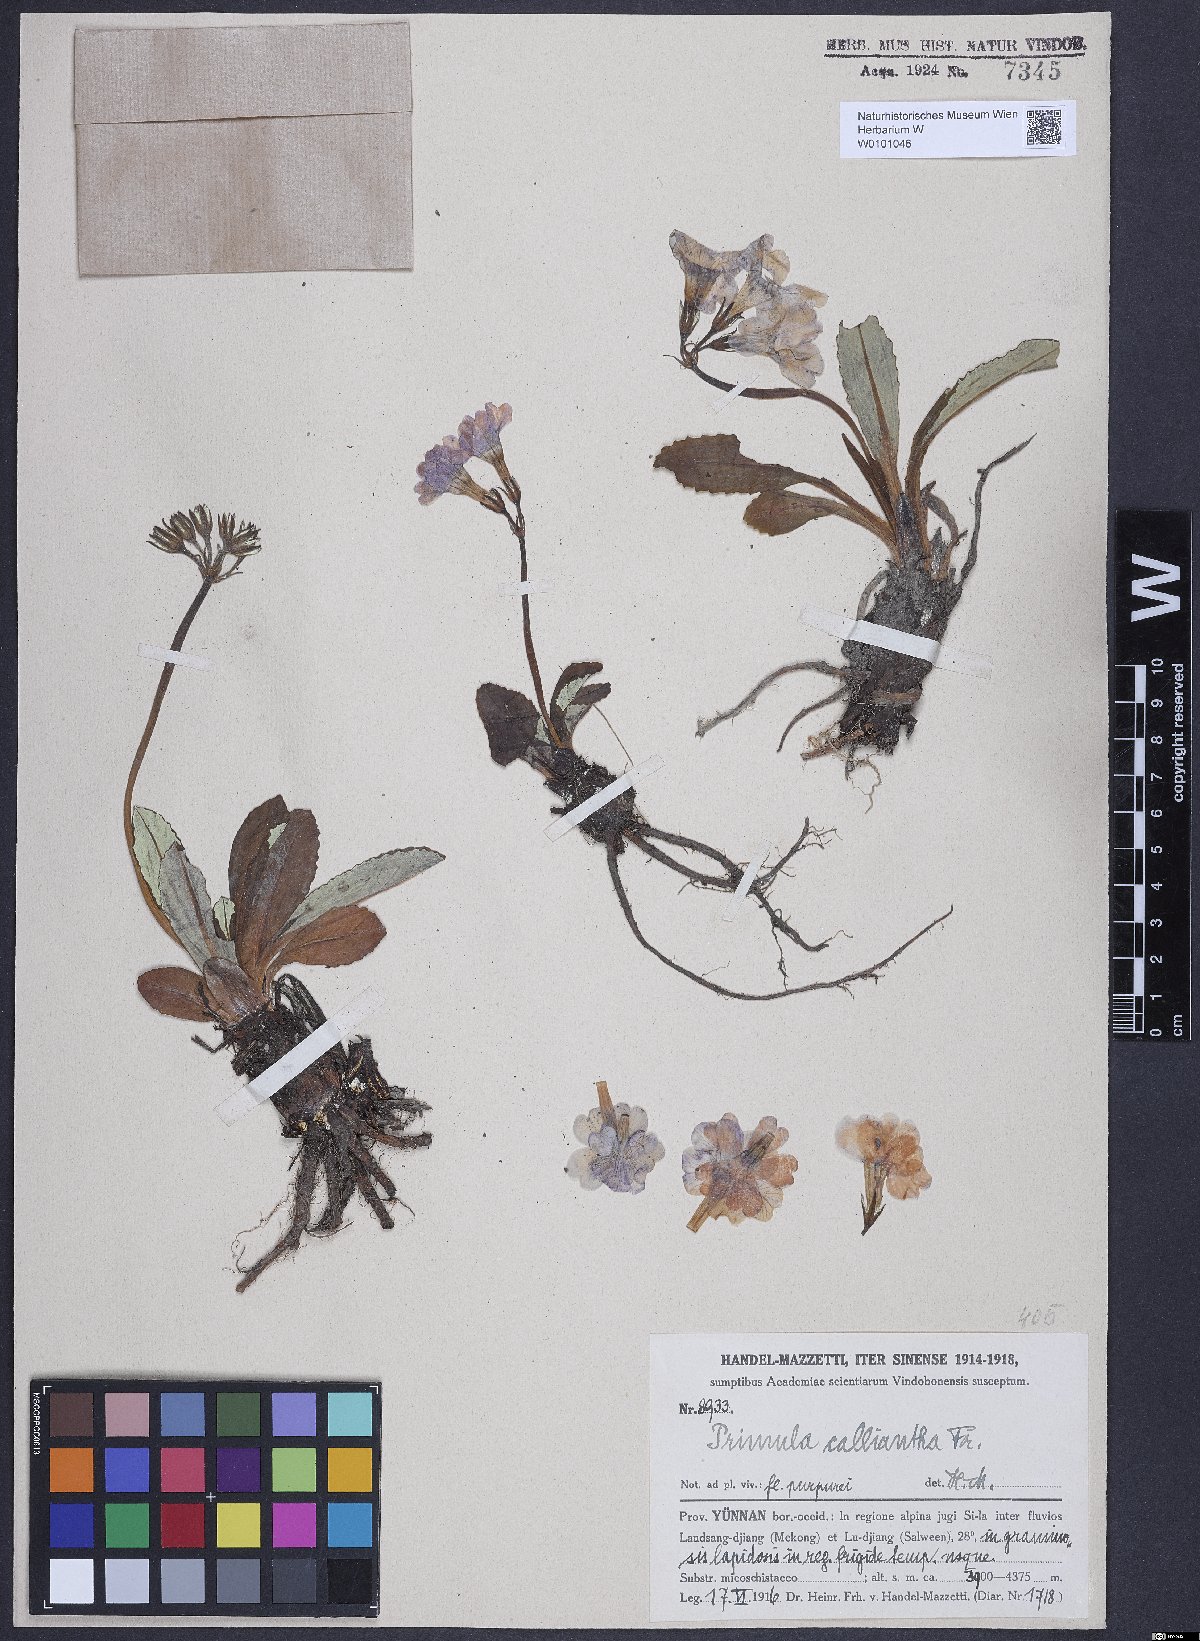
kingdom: Plantae
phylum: Tracheophyta
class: Magnoliopsida
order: Ericales
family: Primulaceae
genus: Primula
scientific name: Primula calliantha
